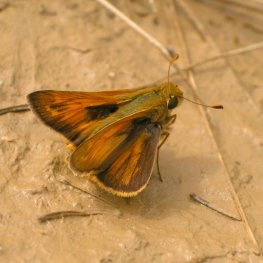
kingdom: Animalia
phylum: Arthropoda
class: Insecta
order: Lepidoptera
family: Hesperiidae
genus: Atalopedes
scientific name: Atalopedes campestris
